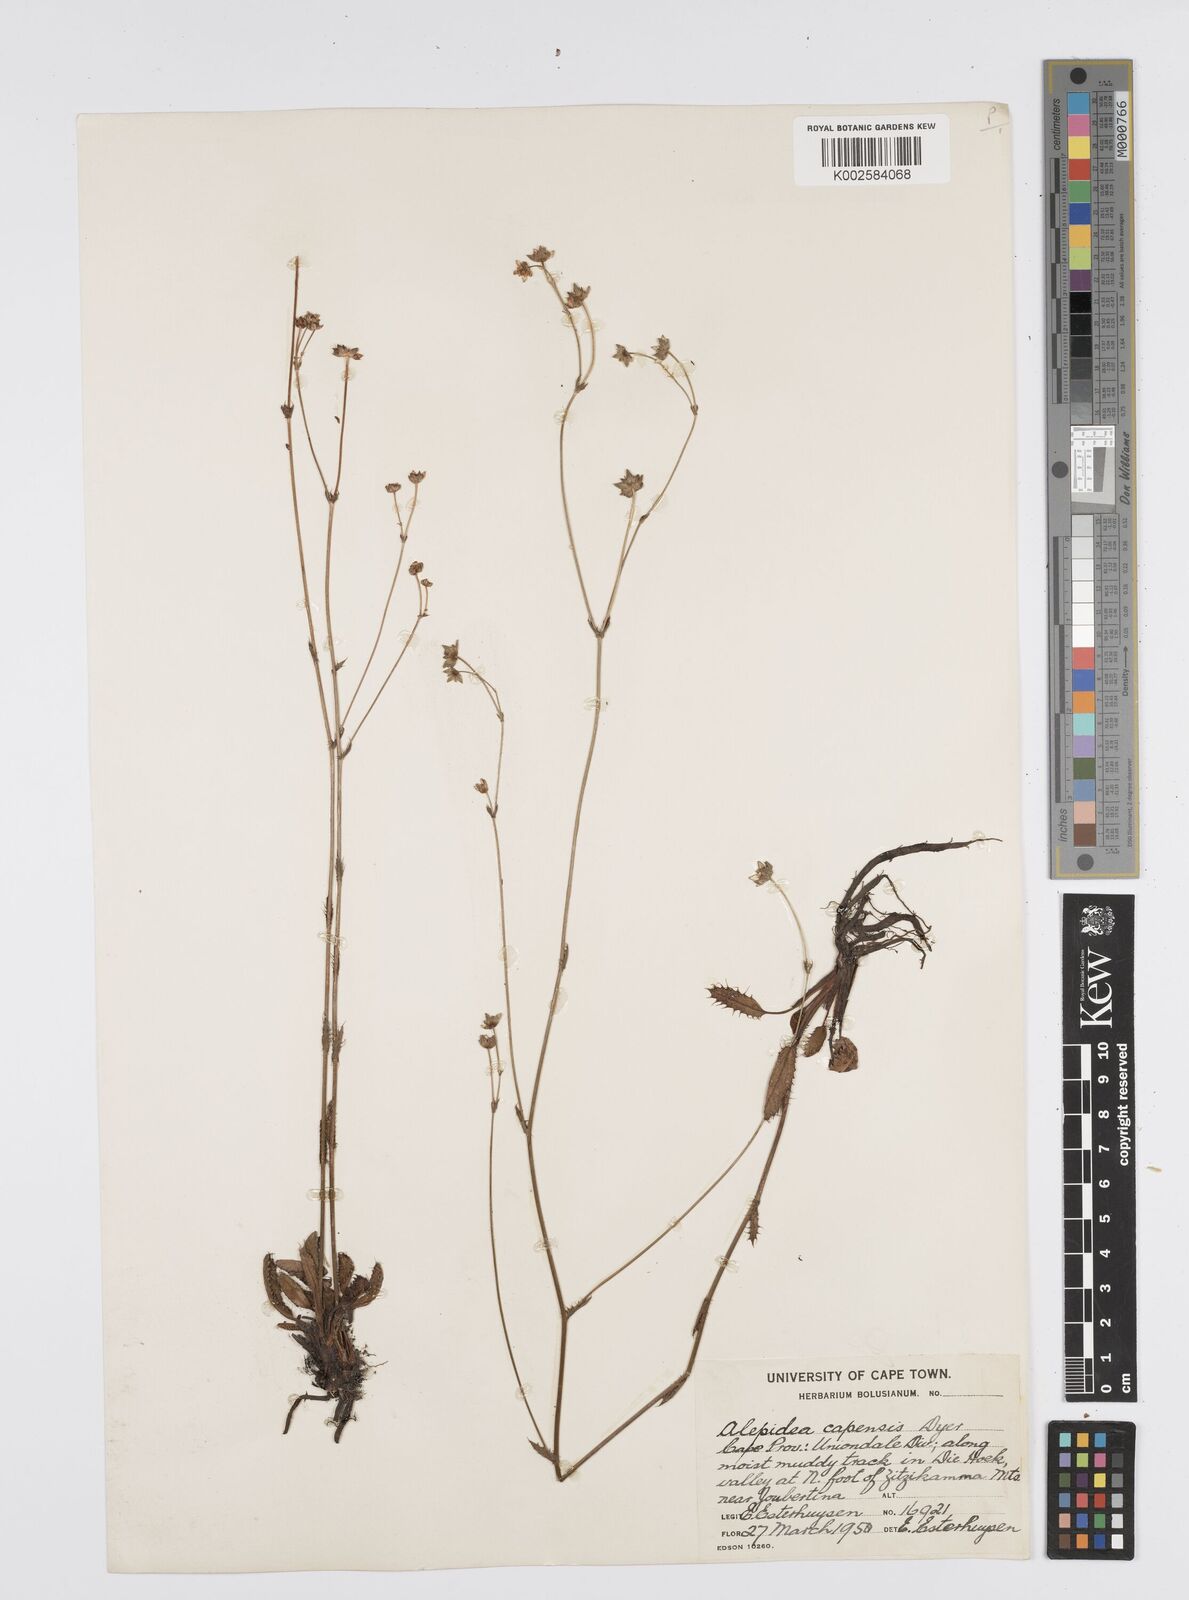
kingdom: Plantae
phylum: Tracheophyta
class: Magnoliopsida
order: Apiales
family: Apiaceae
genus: Alepidea
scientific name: Alepidea capensis
